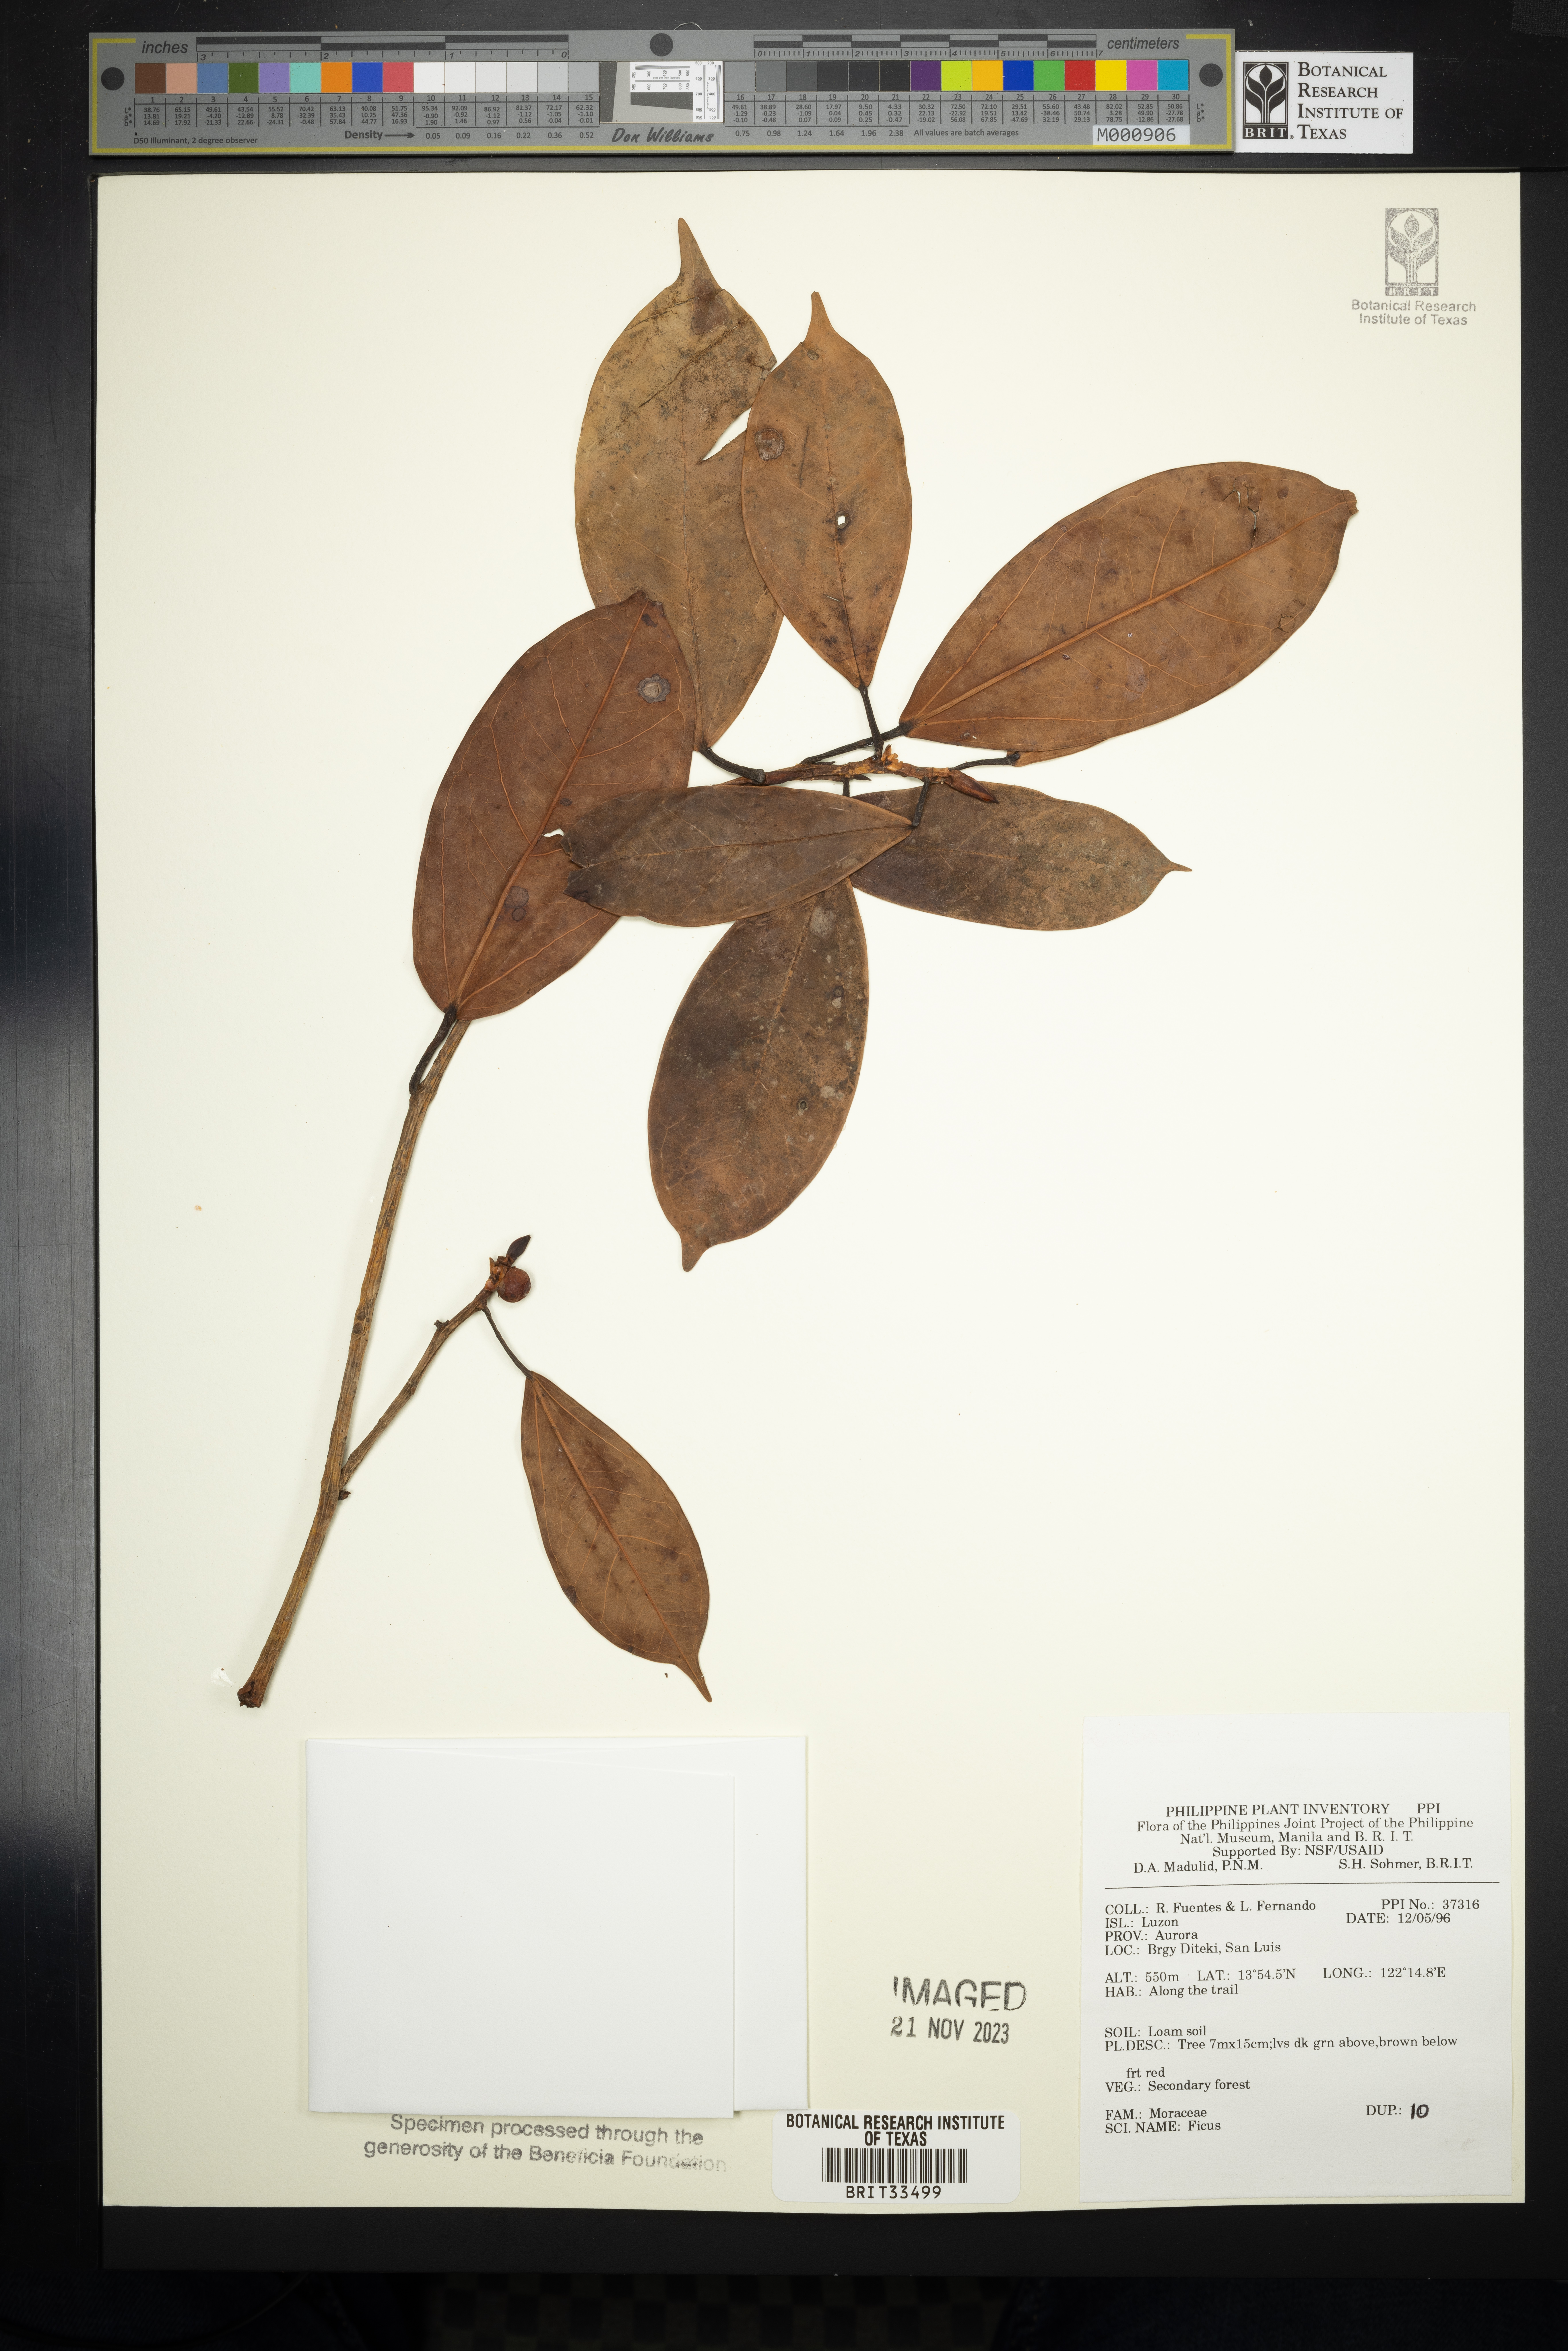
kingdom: Plantae
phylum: Tracheophyta
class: Magnoliopsida
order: Rosales
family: Moraceae
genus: Ficus
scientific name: Ficus
